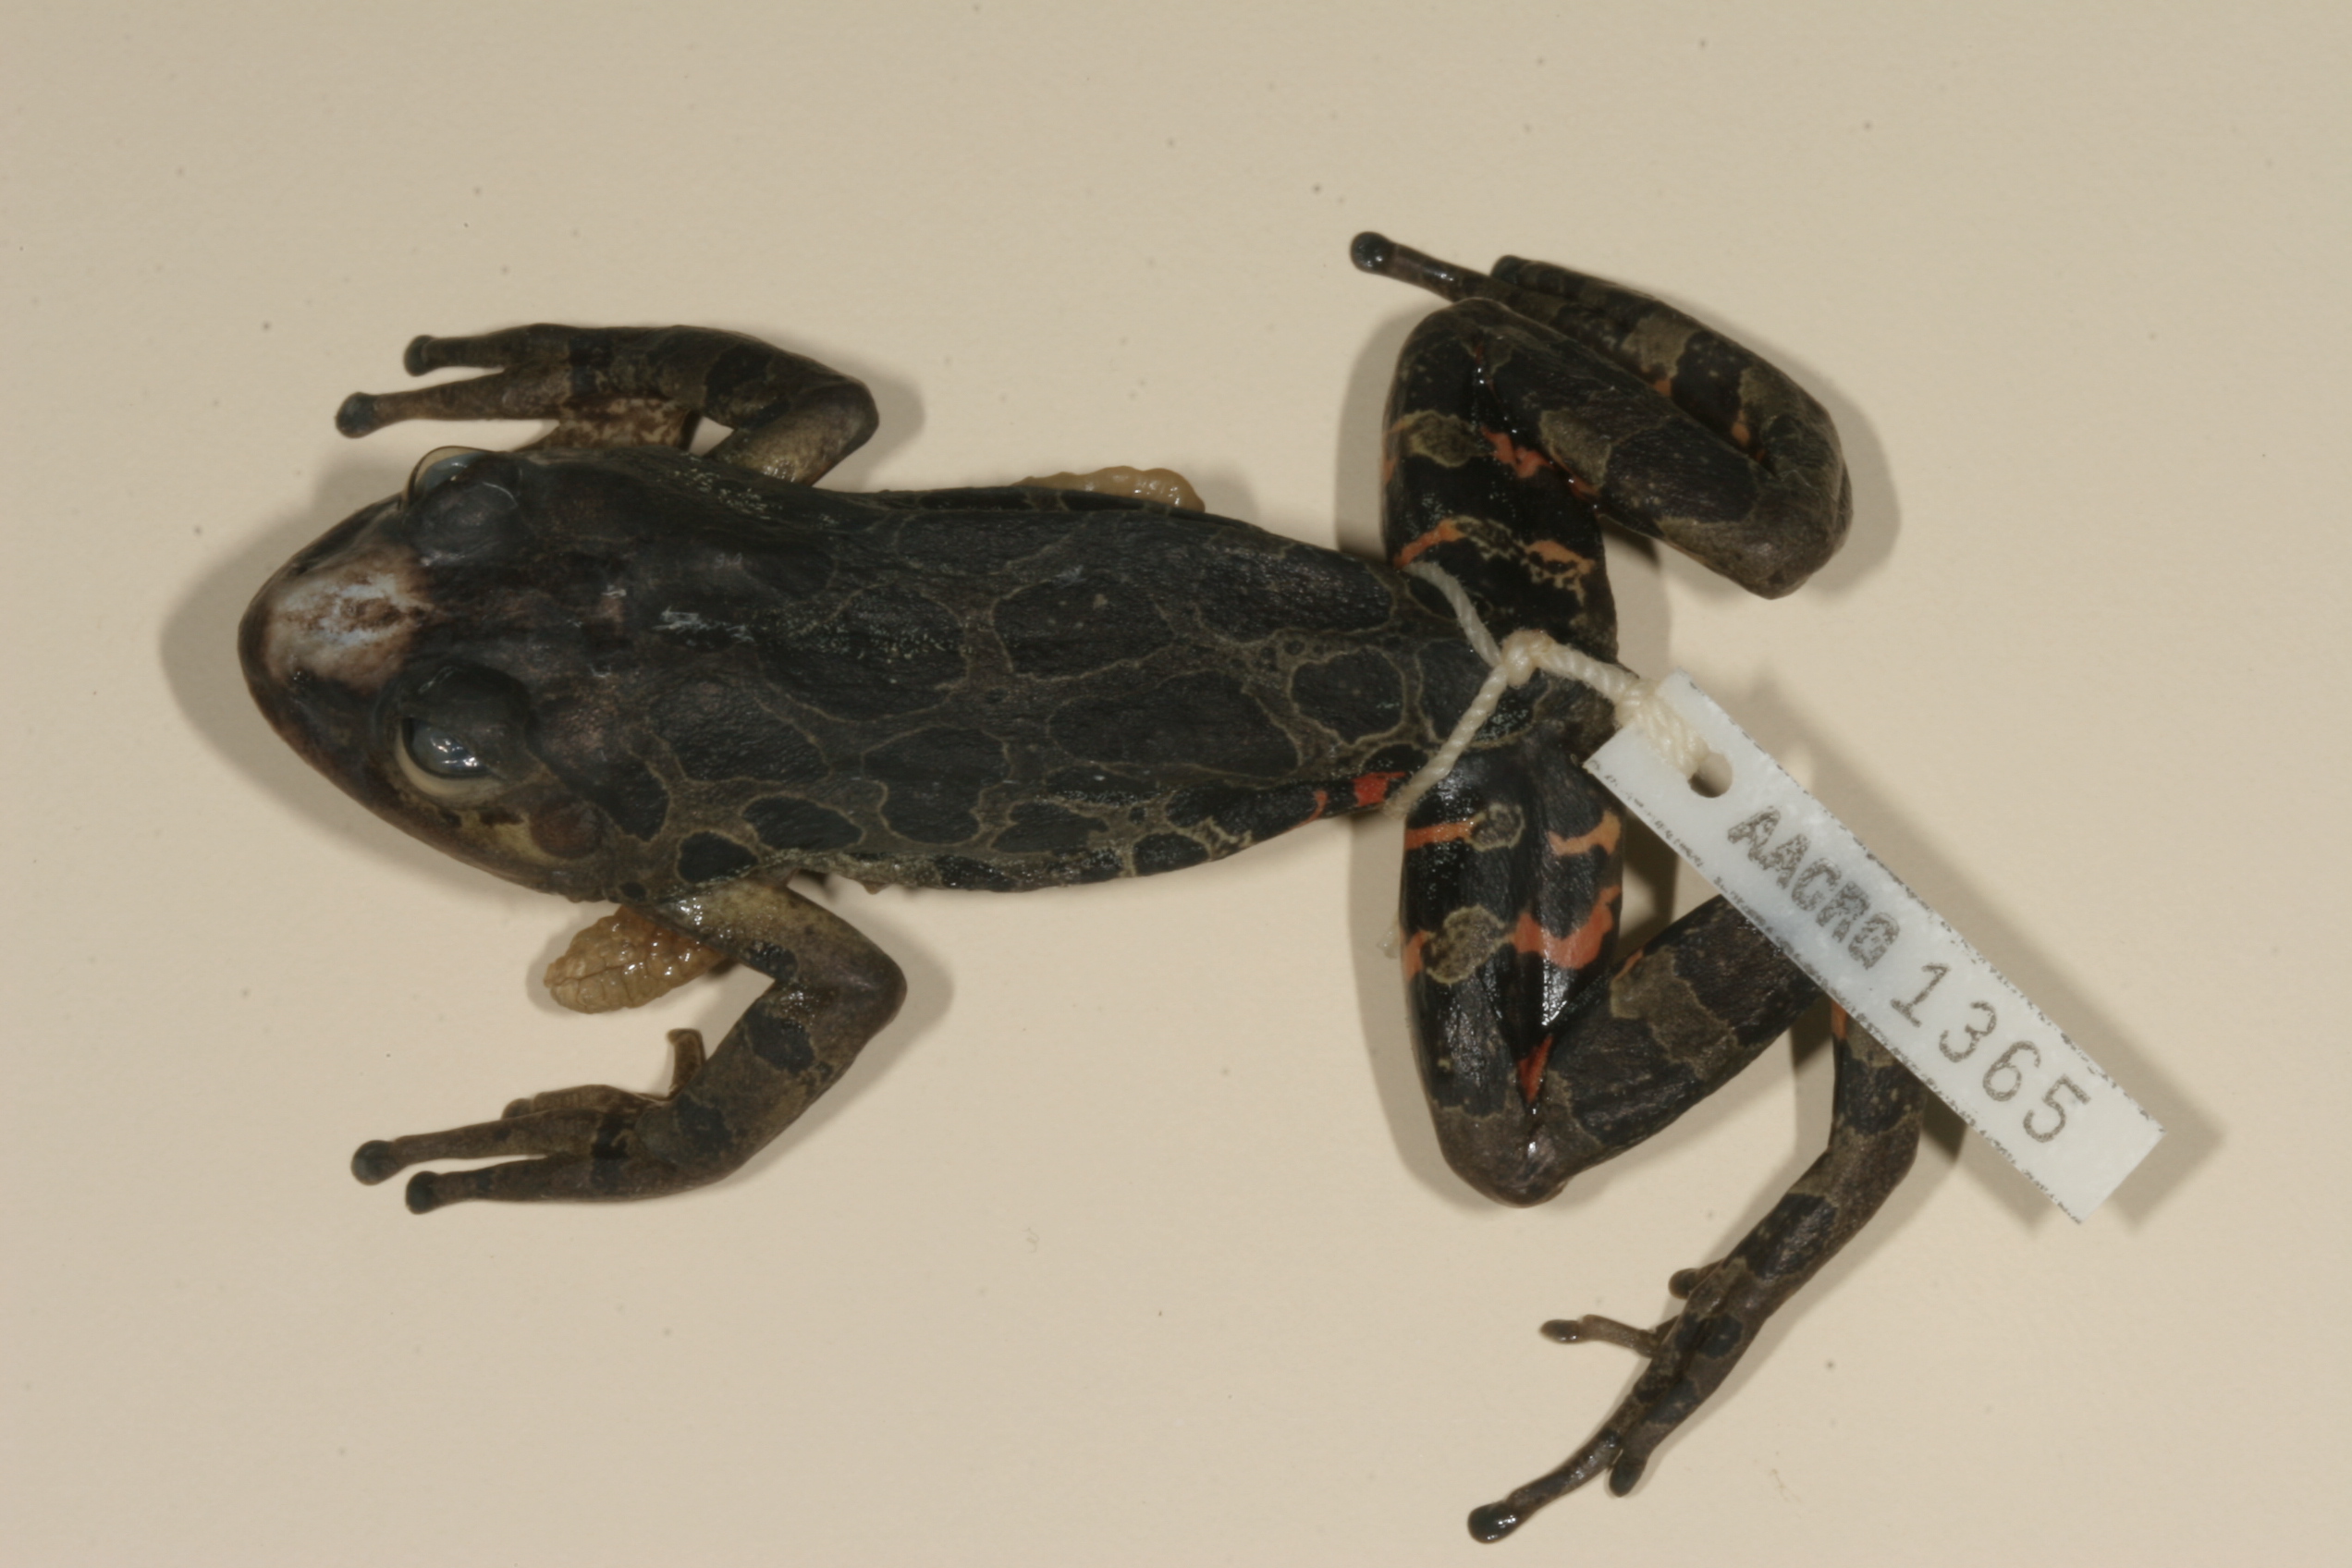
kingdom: Animalia
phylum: Chordata
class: Amphibia
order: Anura
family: Hyperoliidae
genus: Phlyctimantis
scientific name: Phlyctimantis maculatus
